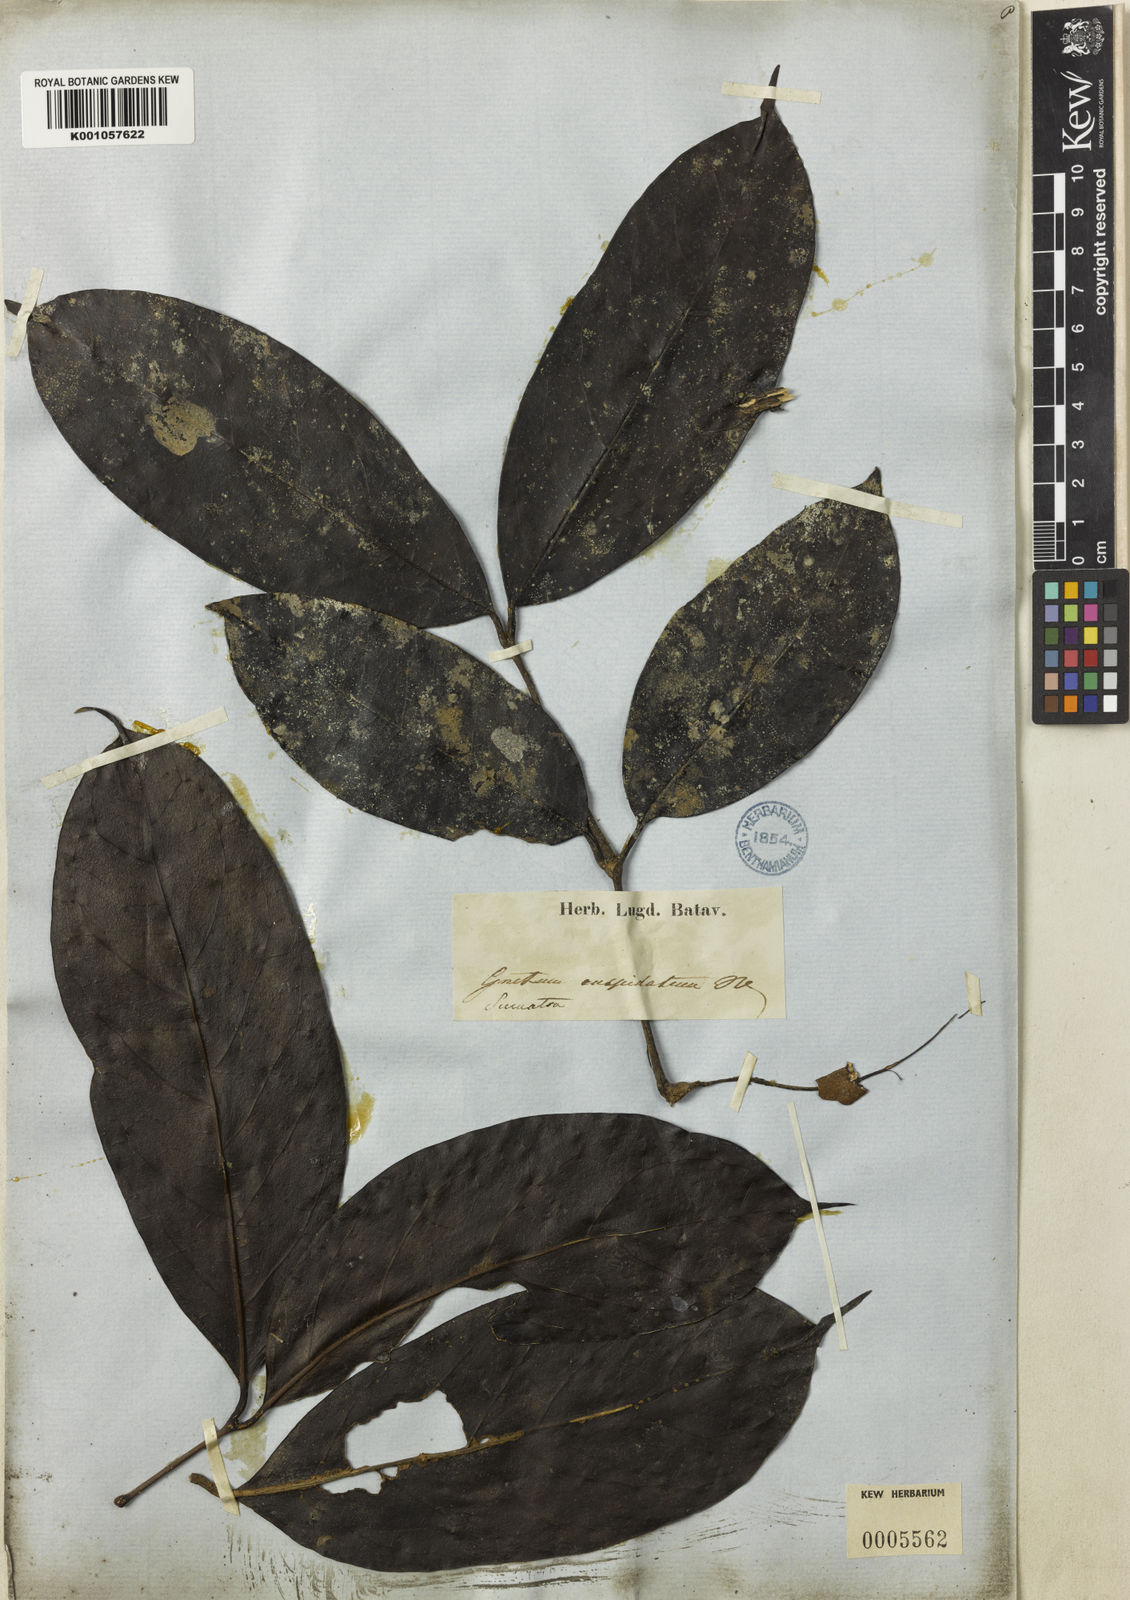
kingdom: Plantae
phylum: Tracheophyta
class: Gnetopsida
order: Gnetales
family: Gnetaceae
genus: Gnetum
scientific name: Gnetum latifolium
